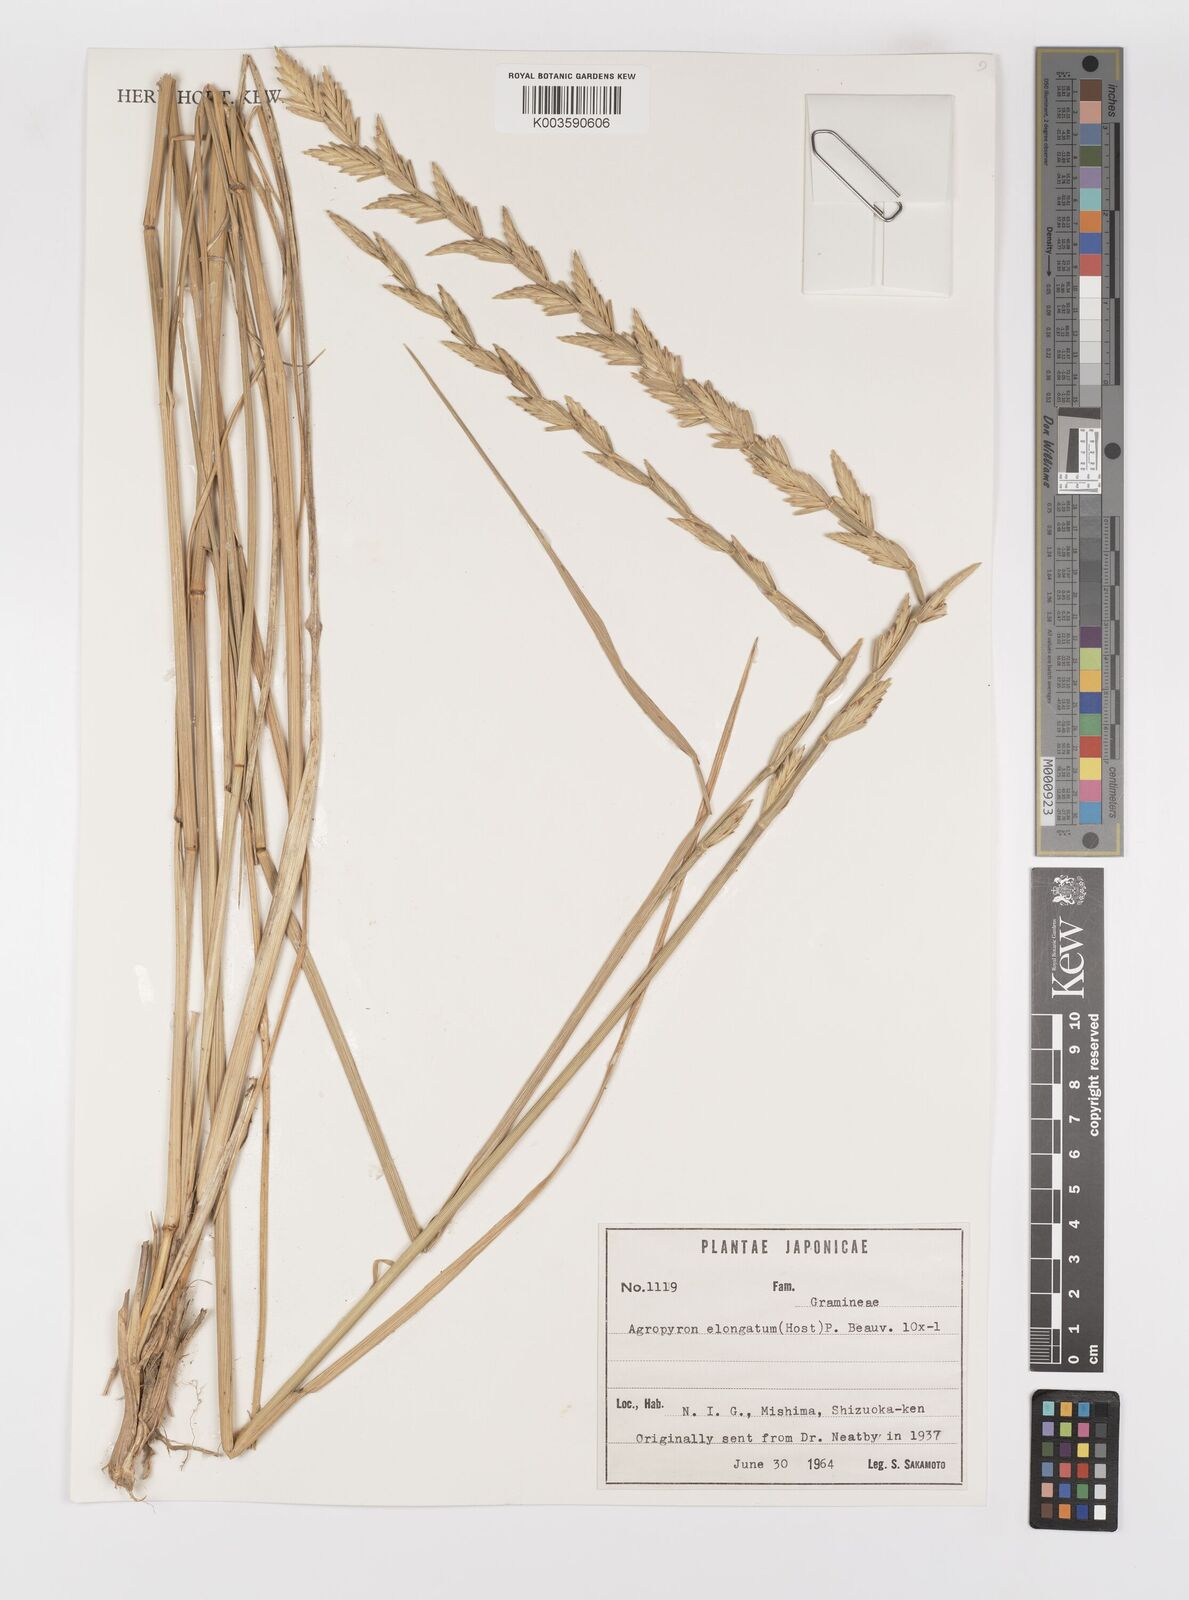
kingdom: Plantae
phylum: Tracheophyta
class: Liliopsida
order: Poales
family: Poaceae
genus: Thinopyrum
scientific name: Thinopyrum elongatum
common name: Tall wheatgrass
